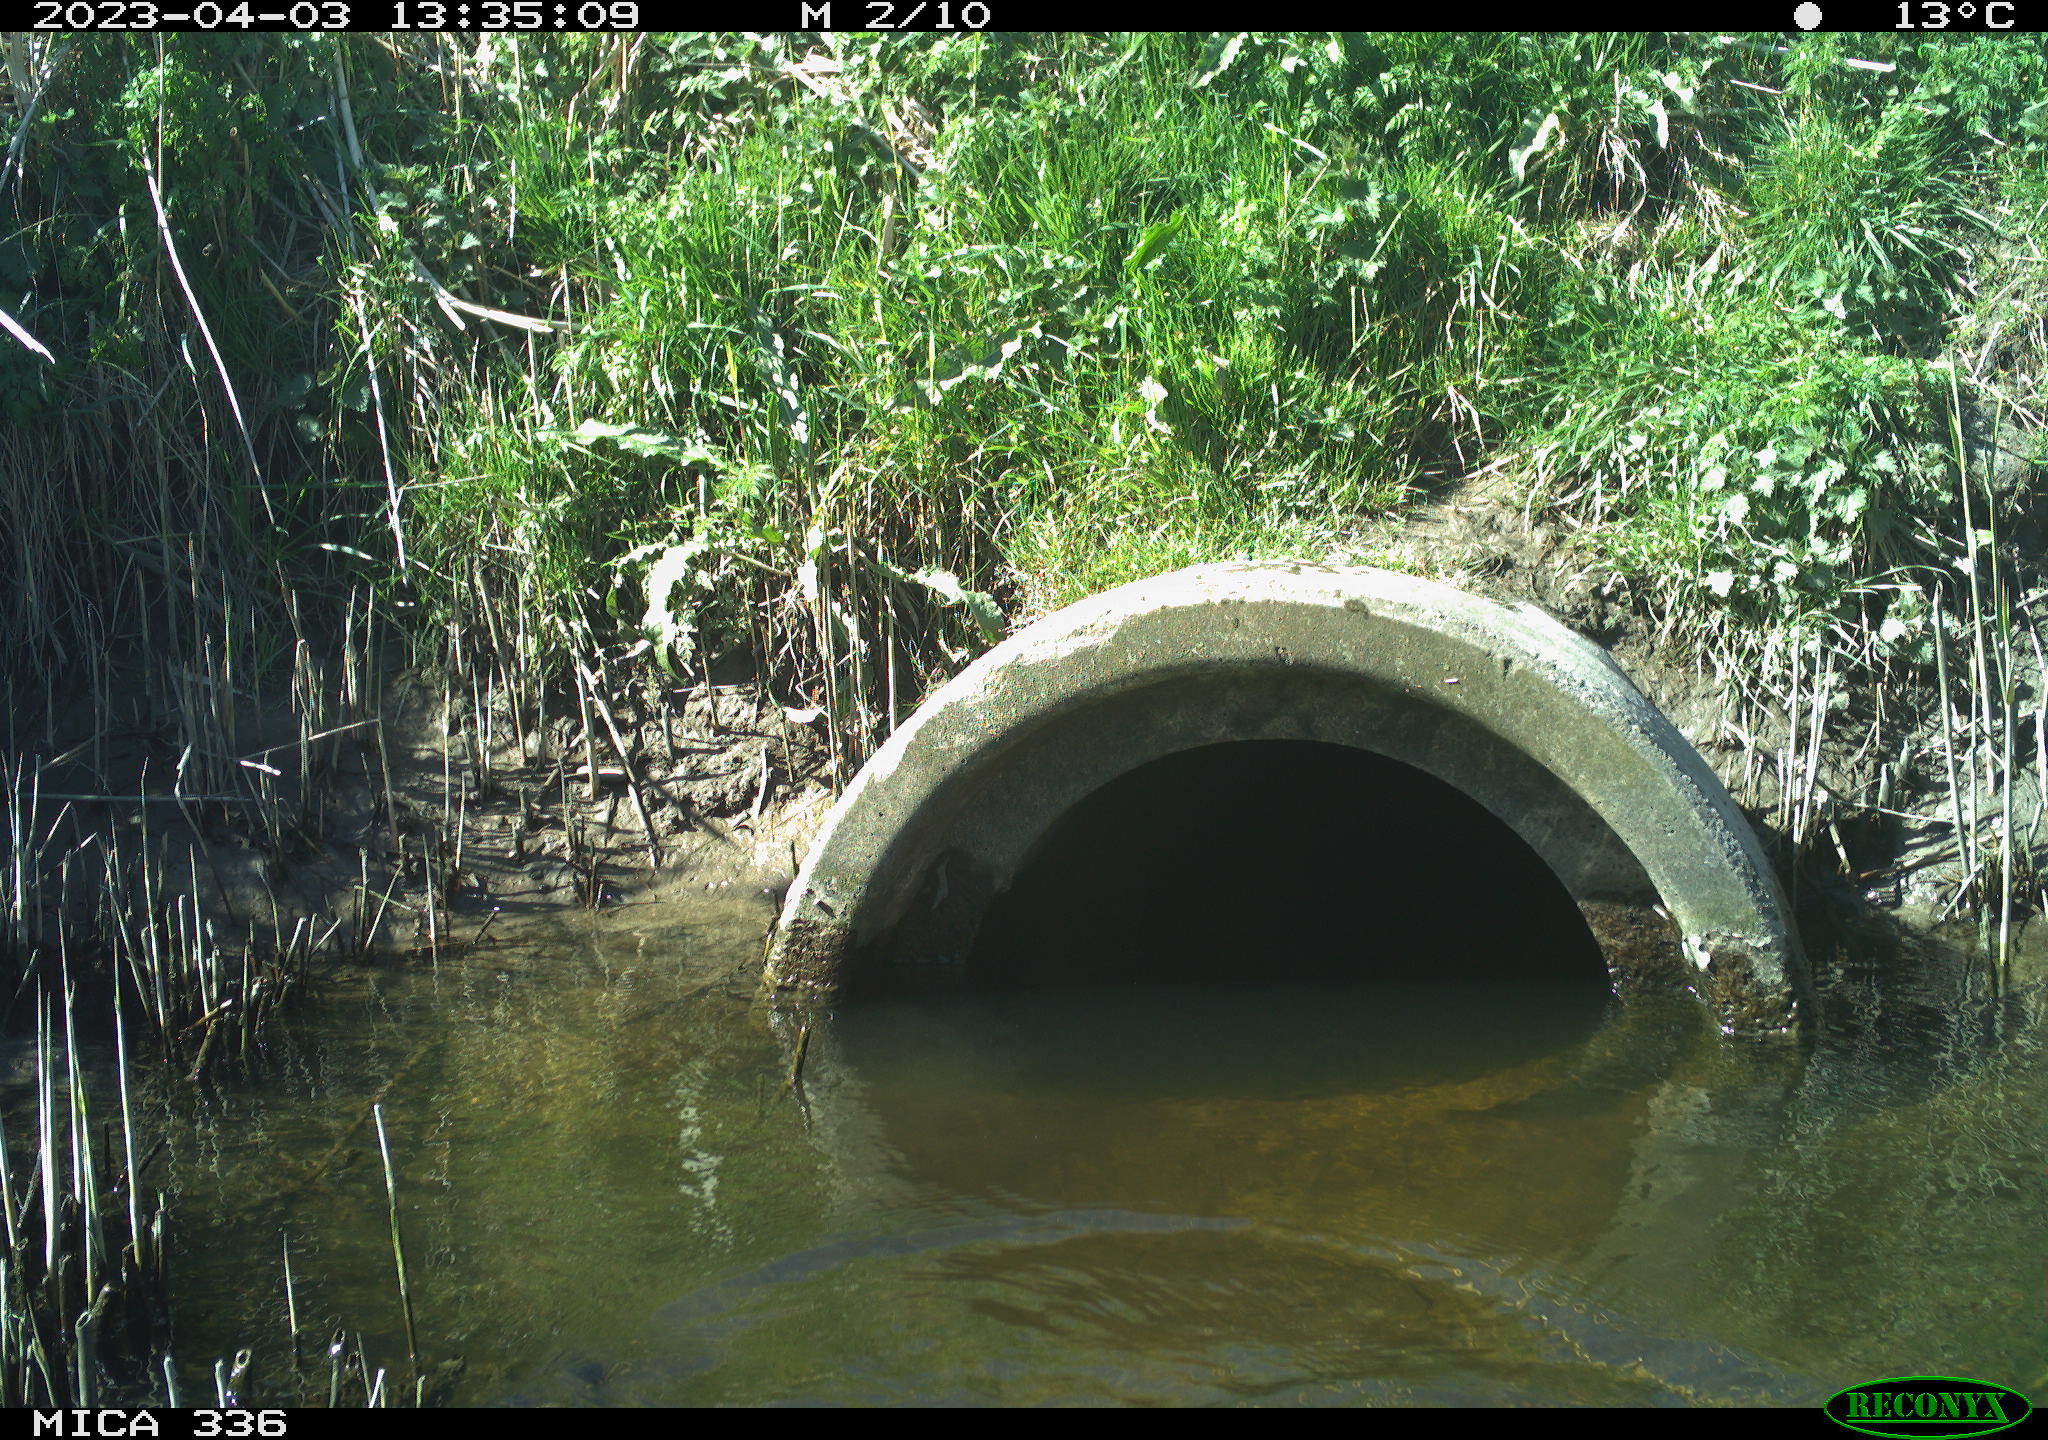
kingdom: Animalia
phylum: Chordata
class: Aves
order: Anseriformes
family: Anatidae
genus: Anas
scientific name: Anas
